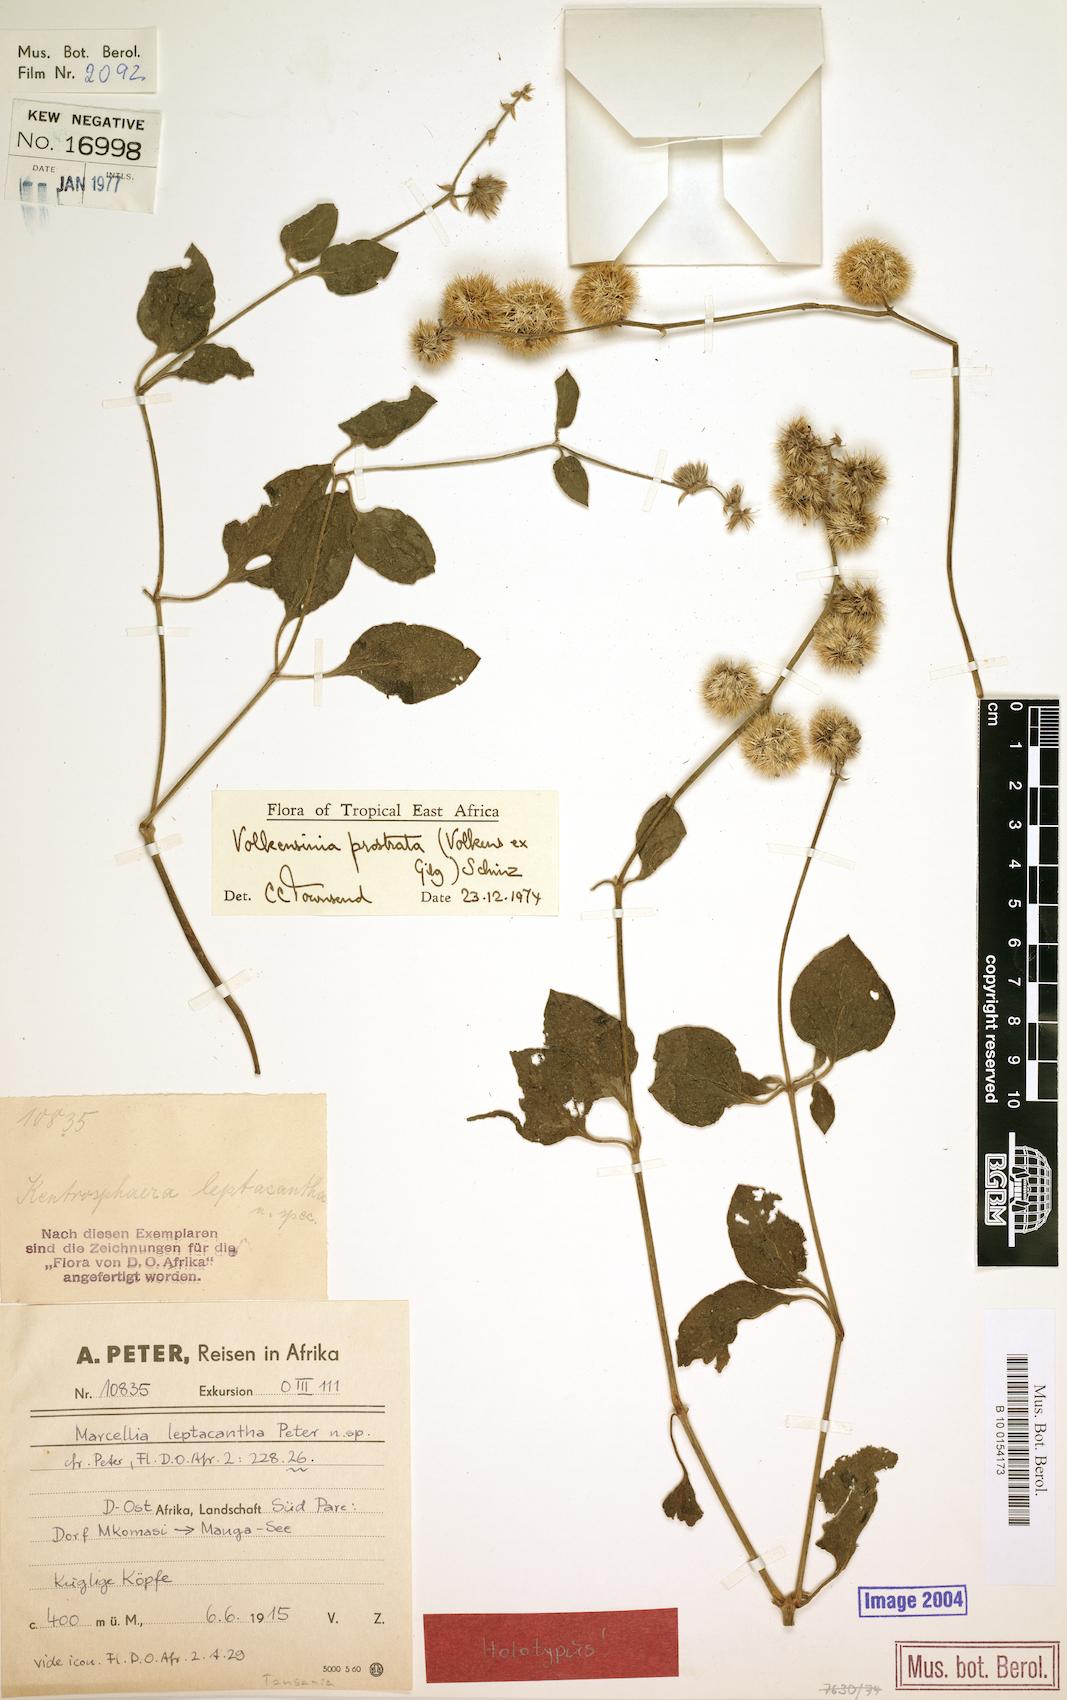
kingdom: Plantae
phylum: Tracheophyta
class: Magnoliopsida
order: Caryophyllales
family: Amaranthaceae
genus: Volkensinia
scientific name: Volkensinia prostrata
